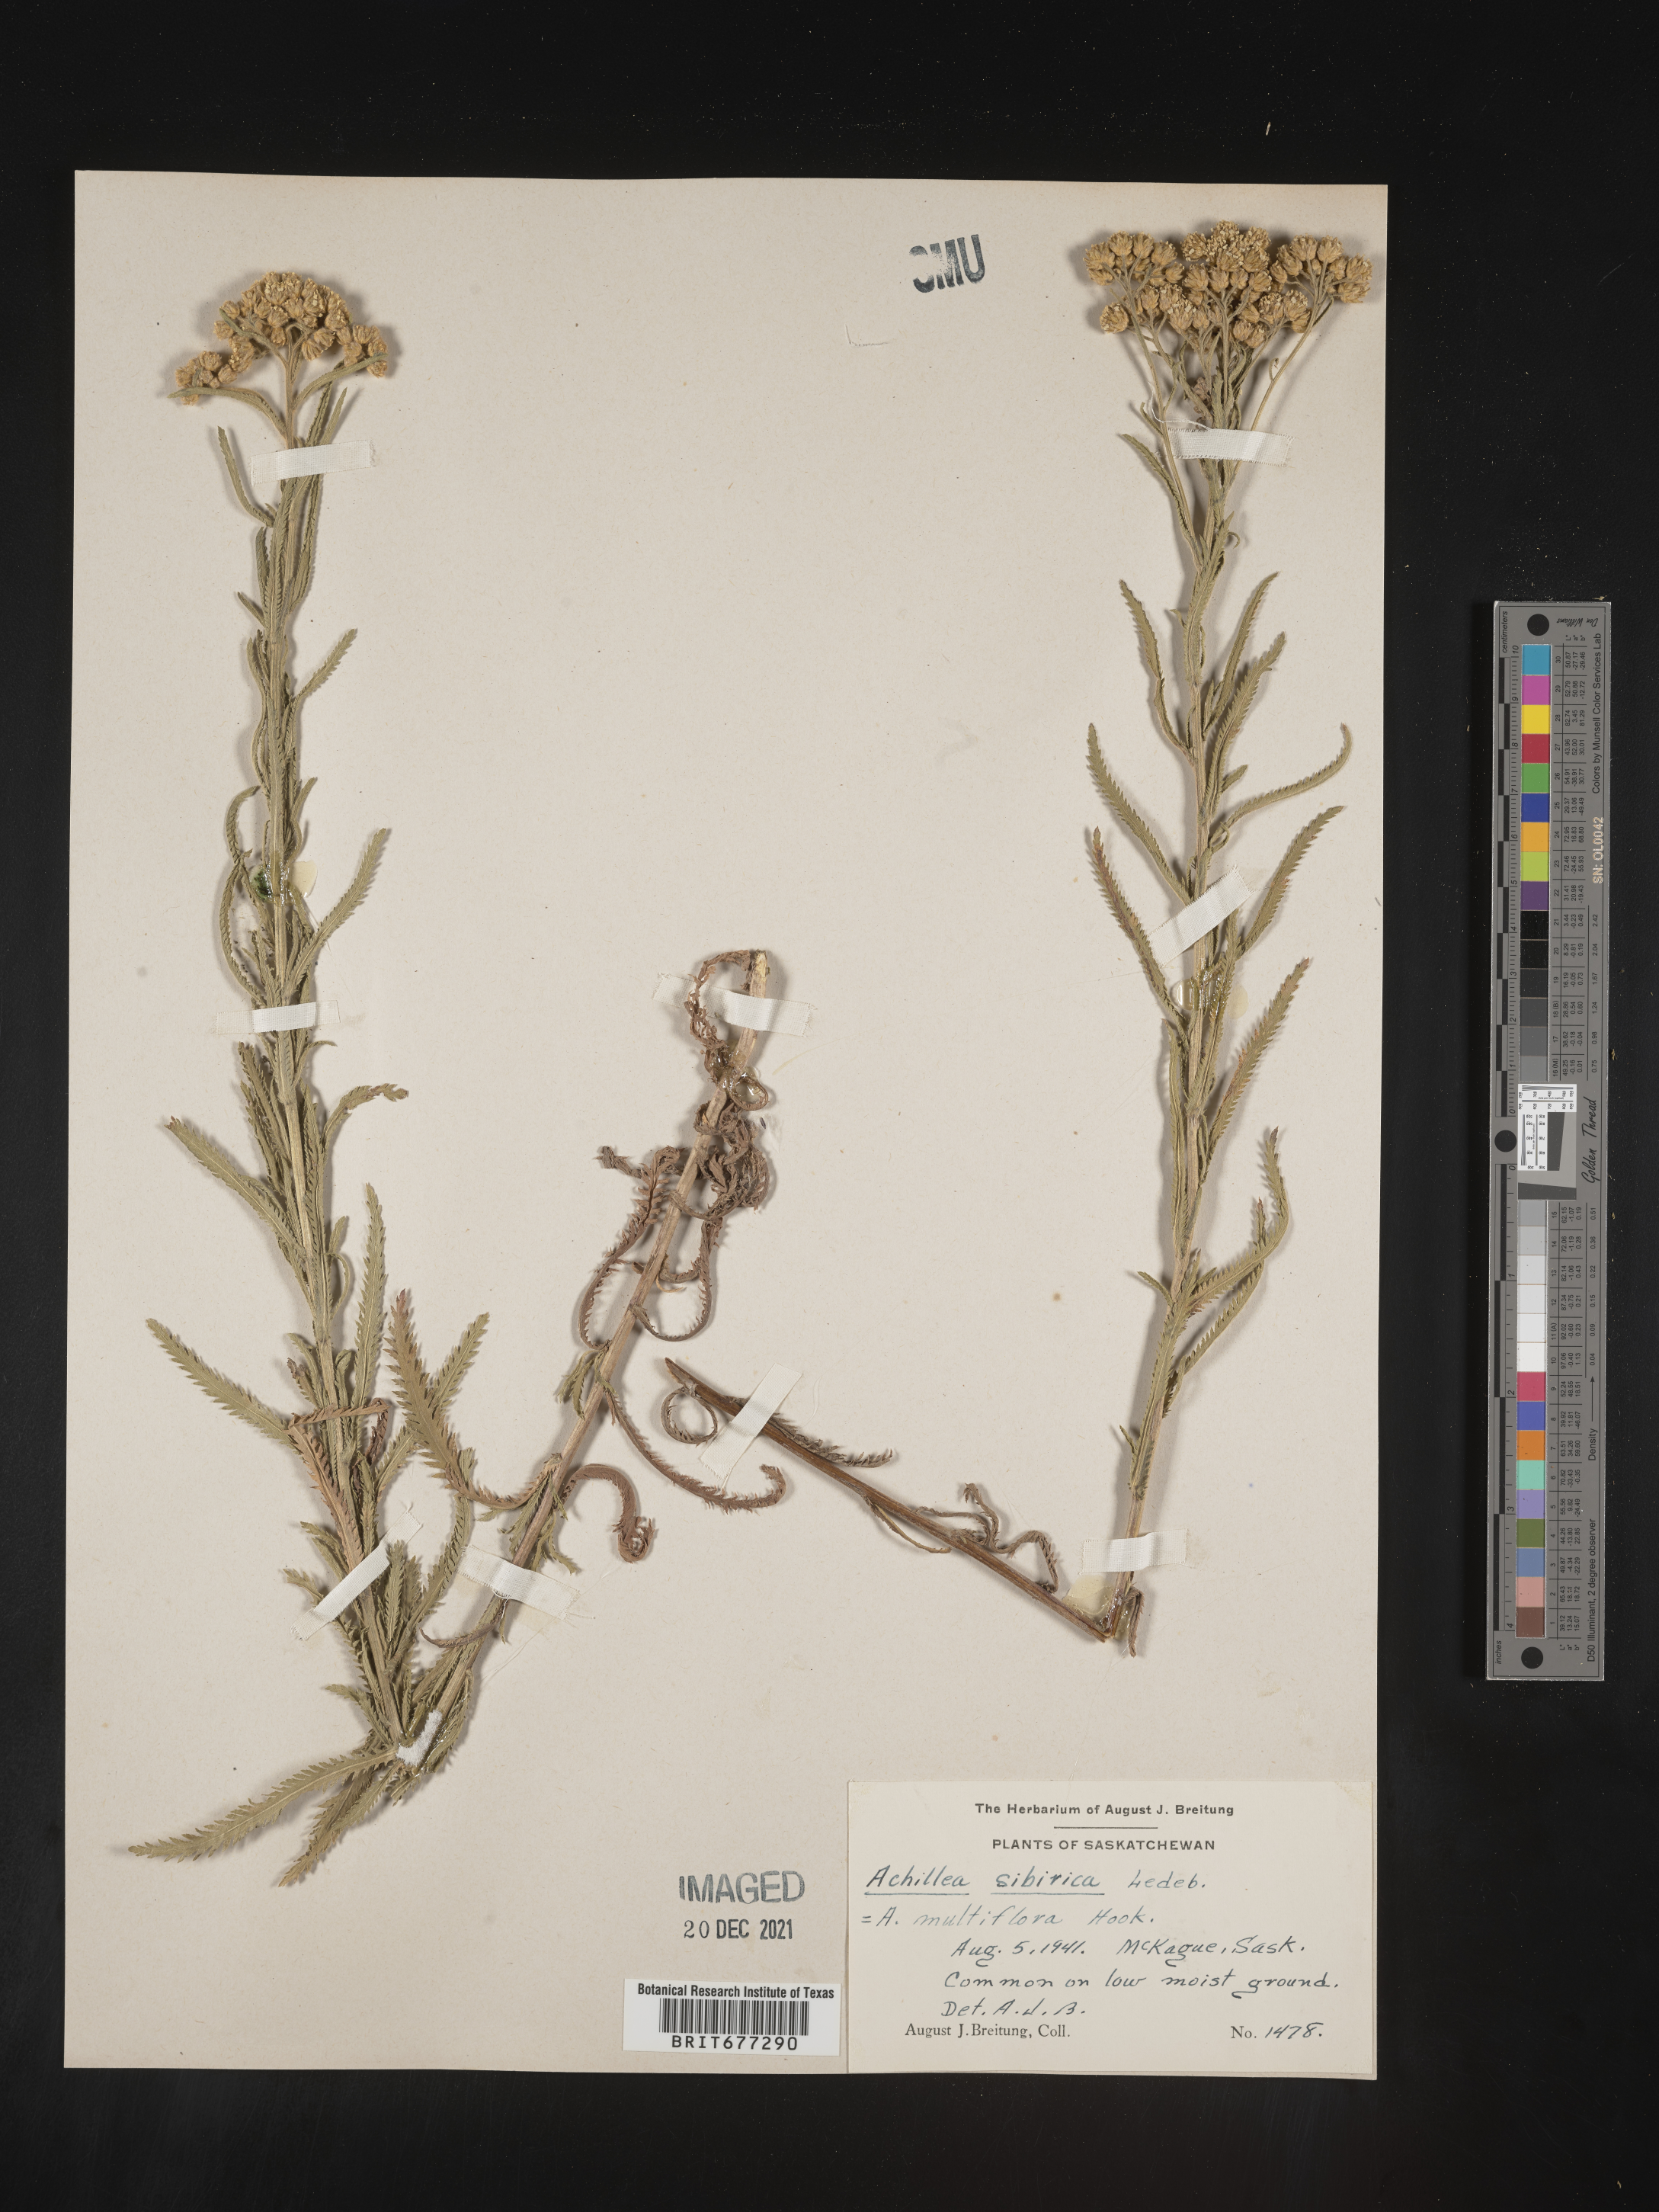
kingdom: Plantae
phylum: Tracheophyta
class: Magnoliopsida
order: Asterales
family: Asteraceae
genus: Achillea
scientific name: Achillea
